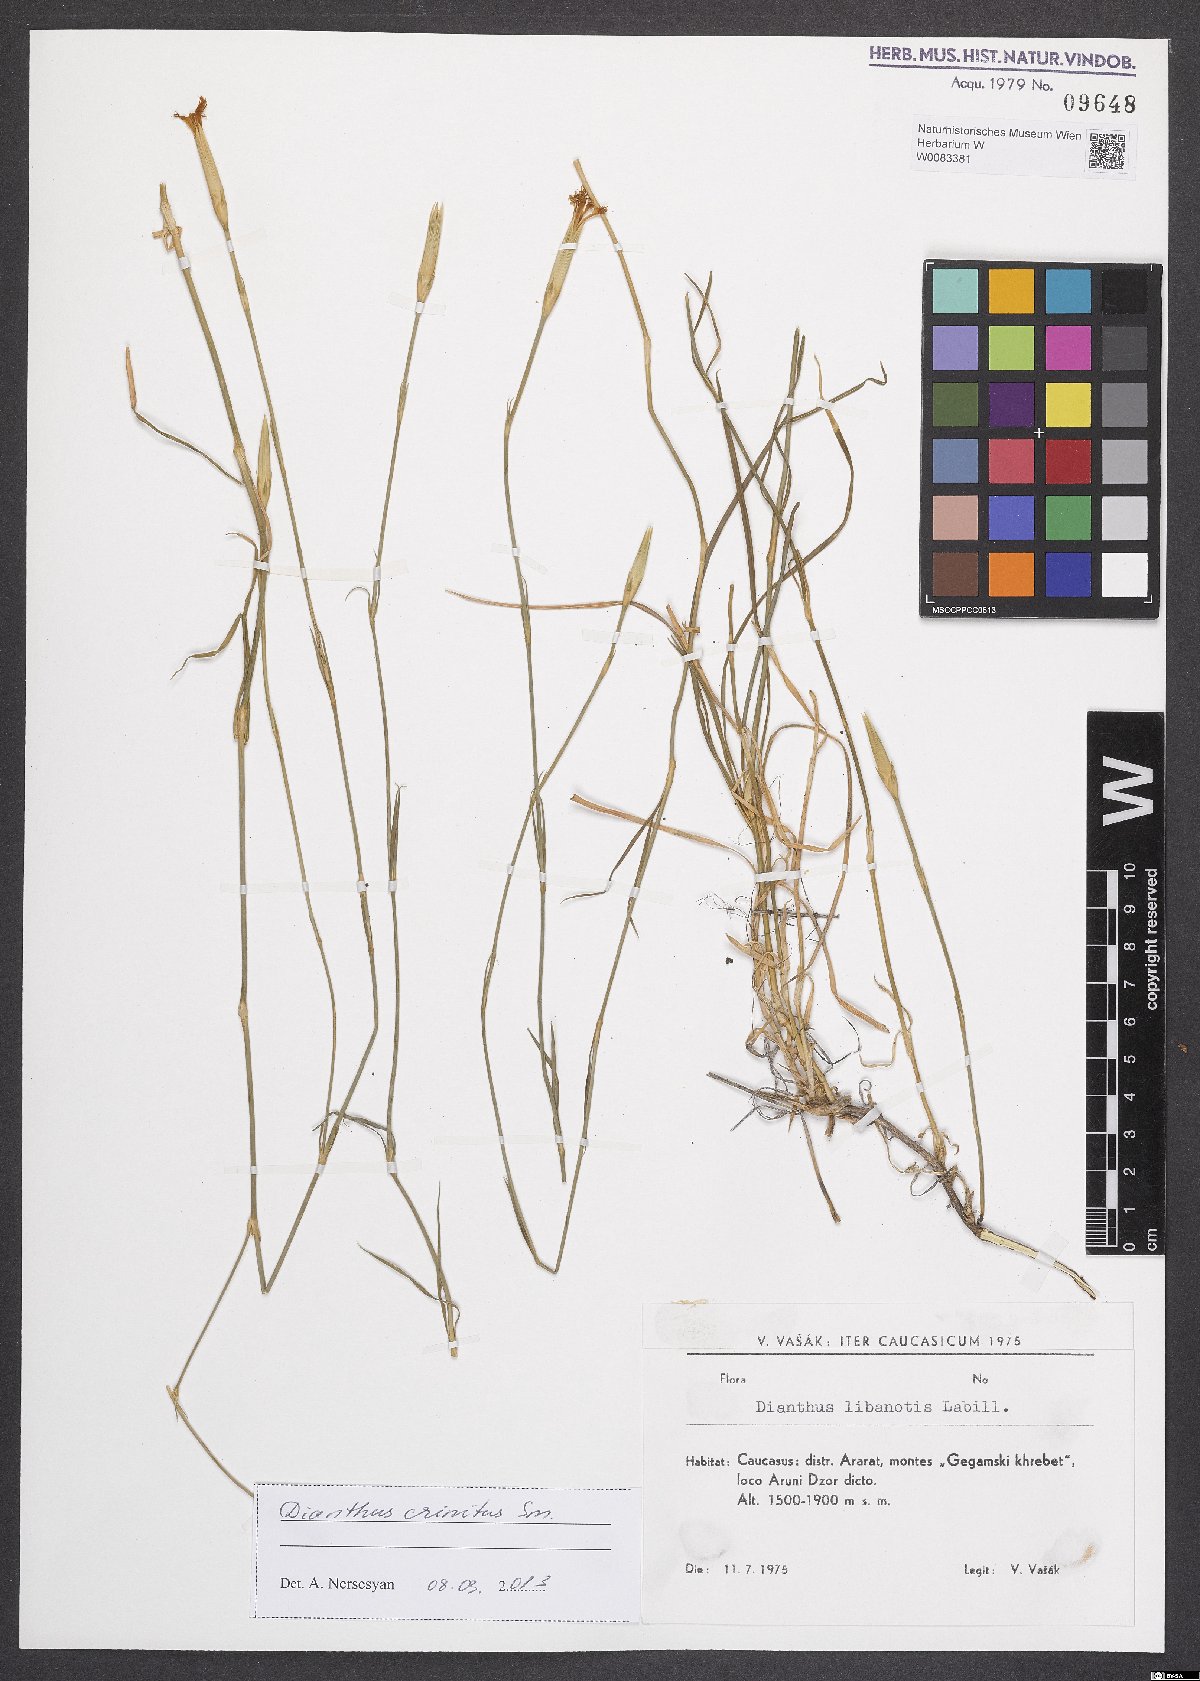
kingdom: Plantae
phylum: Tracheophyta
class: Magnoliopsida
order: Caryophyllales
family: Caryophyllaceae
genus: Dianthus
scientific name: Dianthus crinitus
